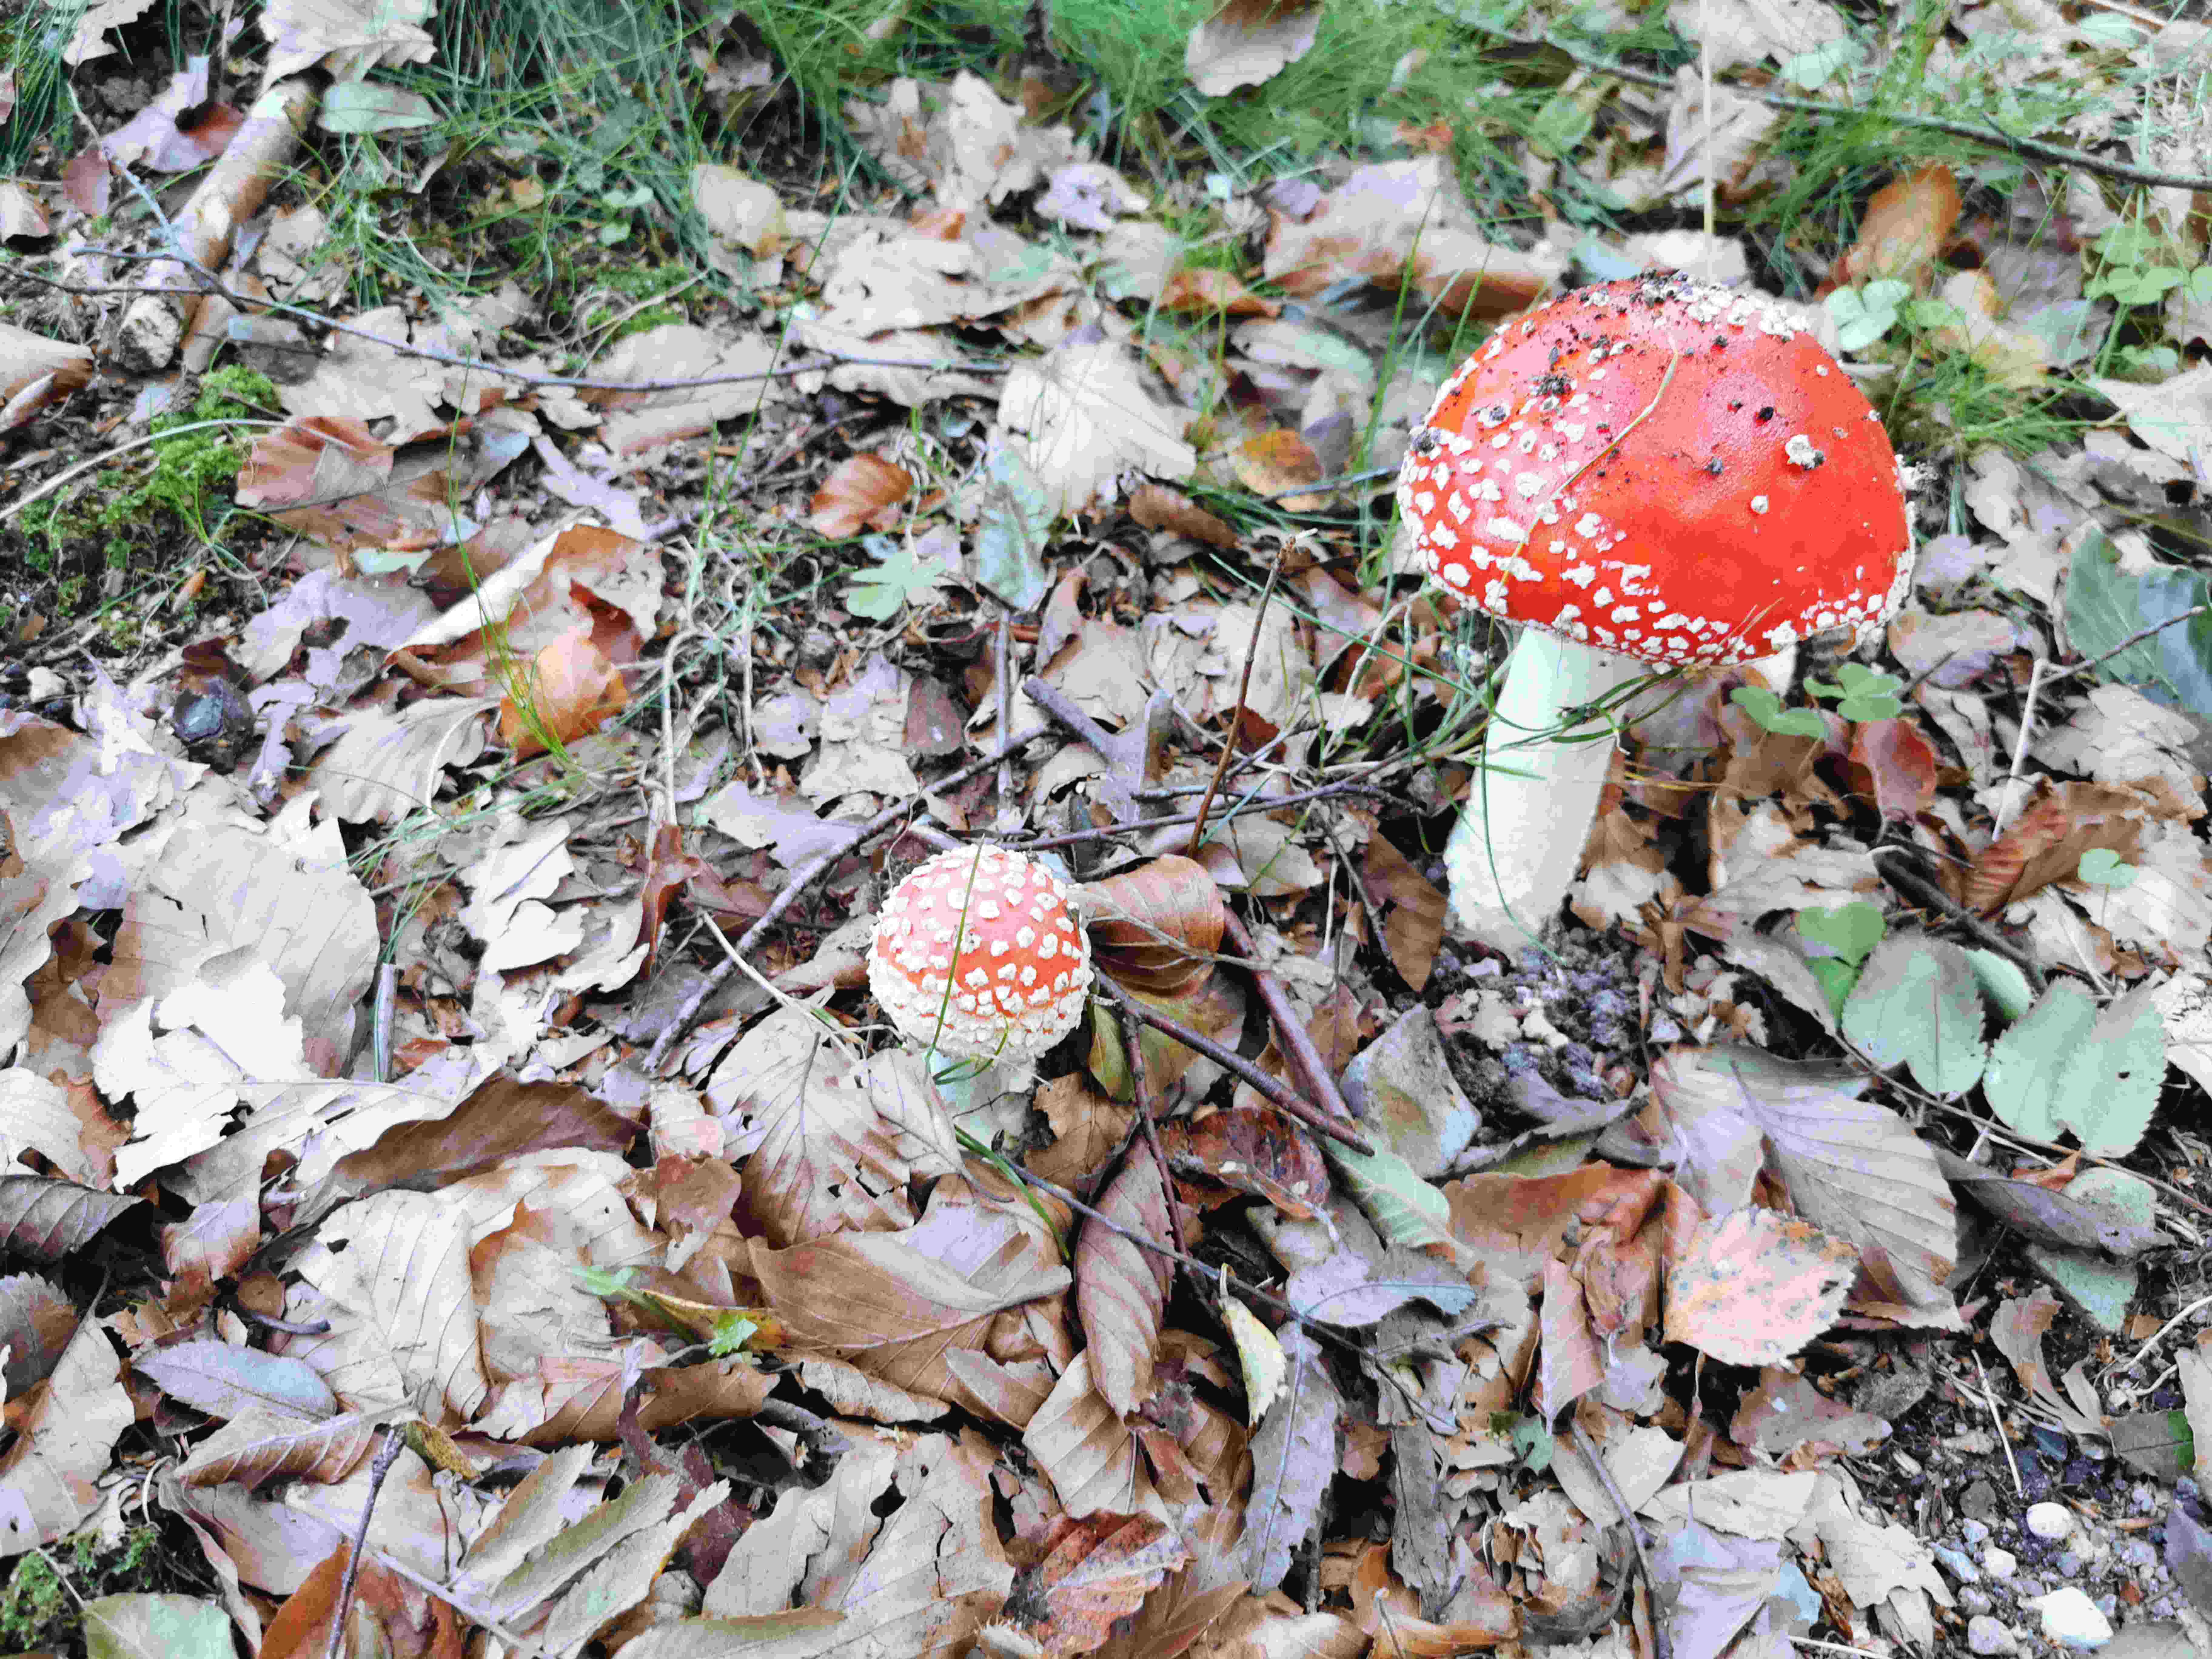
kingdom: Fungi
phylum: Basidiomycota
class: Agaricomycetes
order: Agaricales
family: Amanitaceae
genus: Amanita
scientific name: Amanita muscaria
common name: rød fluesvamp
